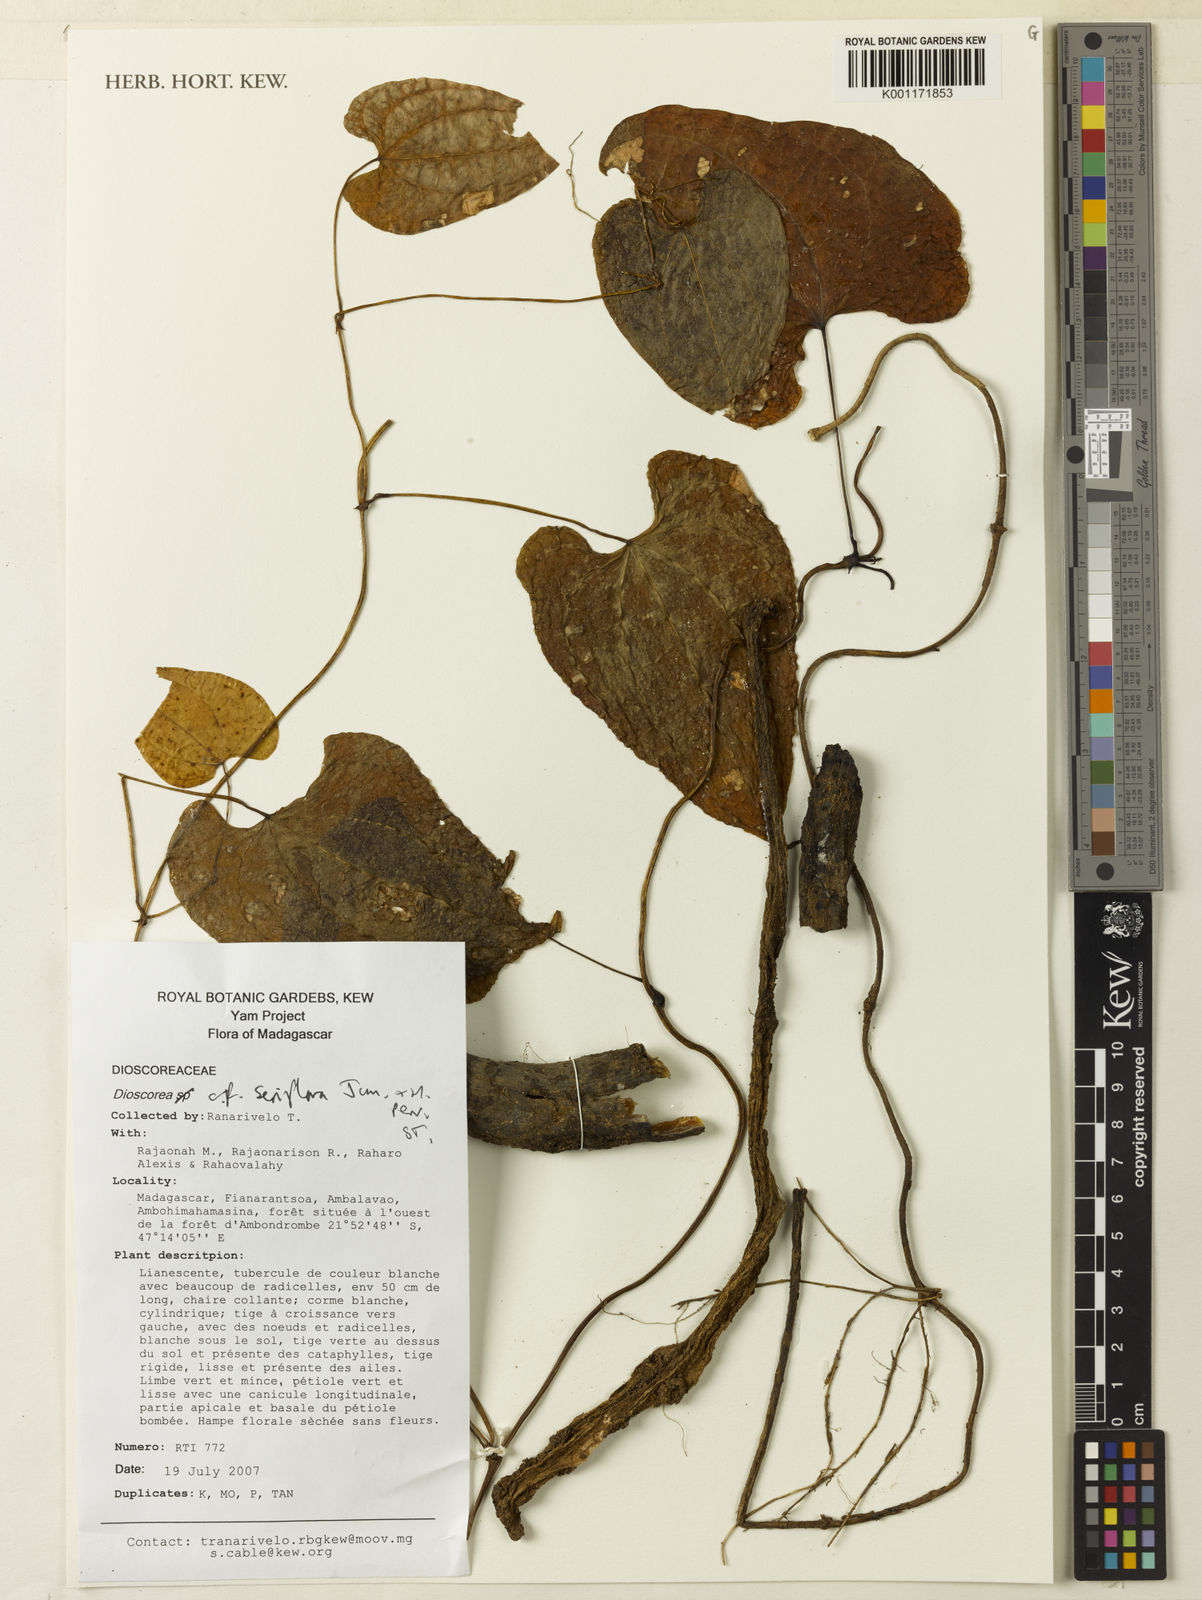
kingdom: Plantae
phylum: Tracheophyta
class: Liliopsida
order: Dioscoreales
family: Dioscoreaceae
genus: Dioscorea
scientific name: Dioscorea seriflora
